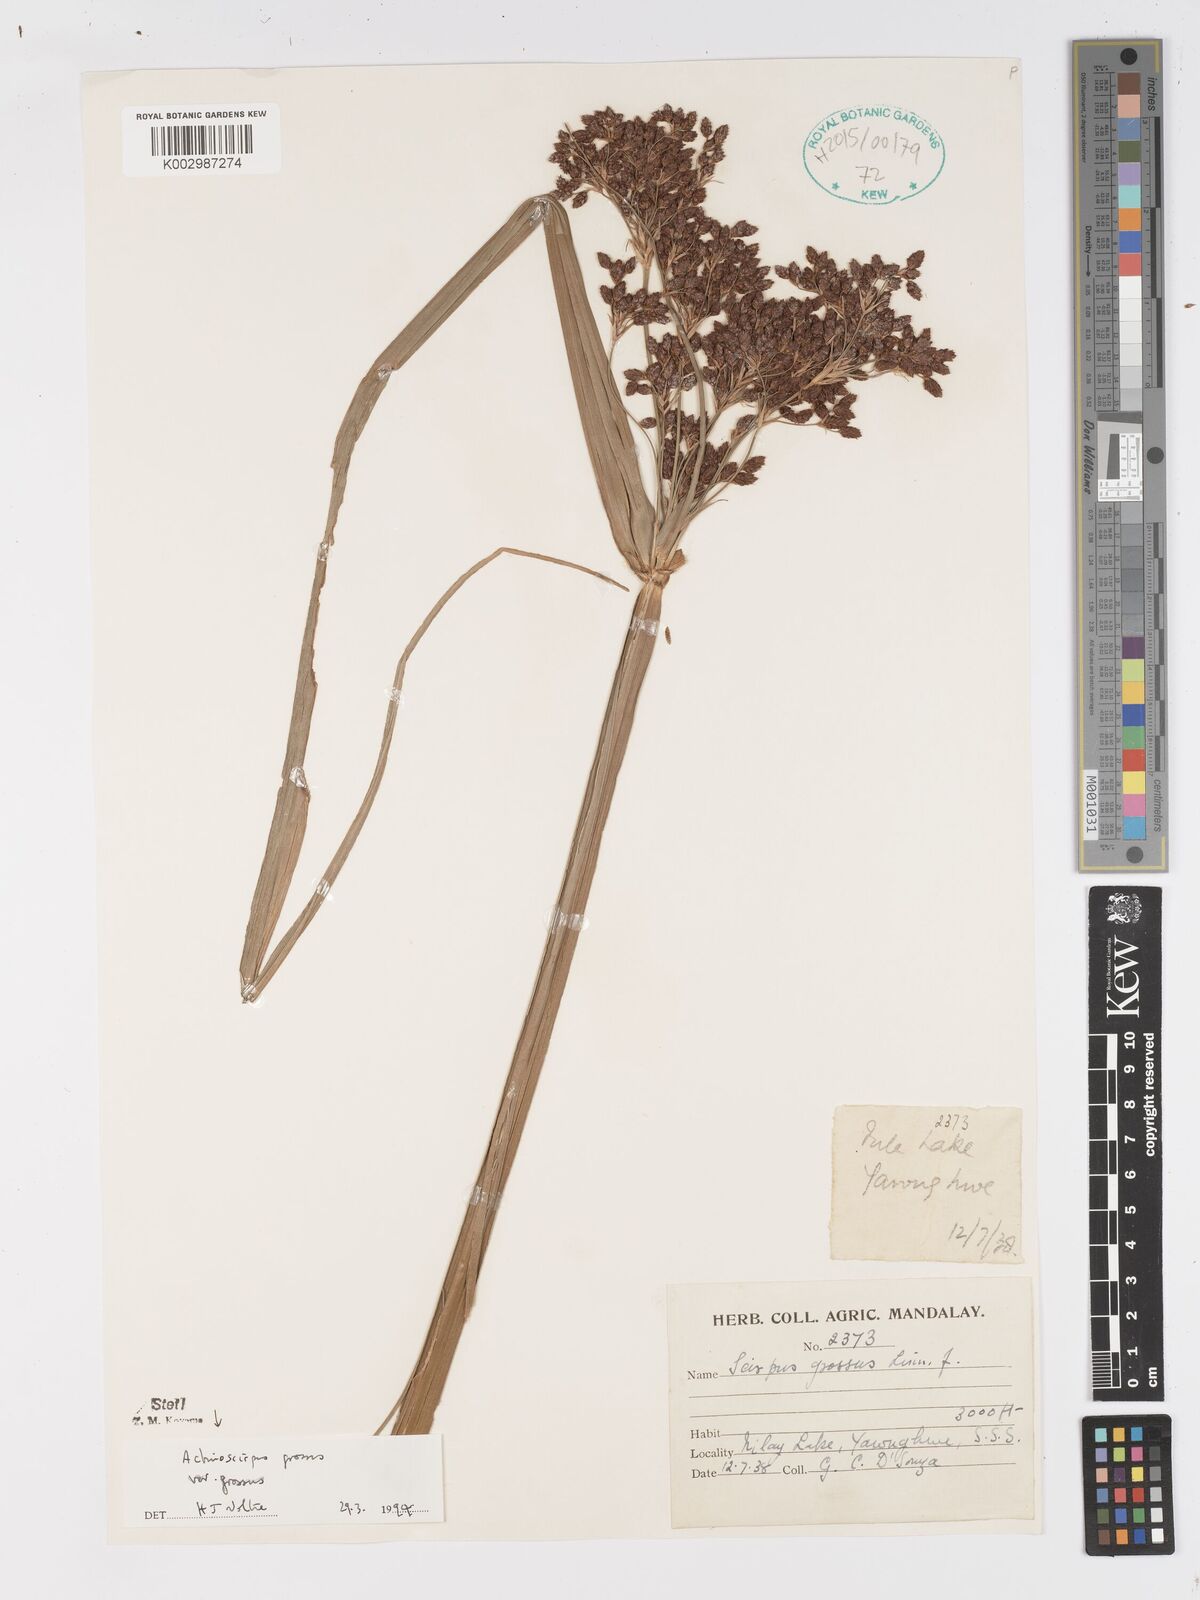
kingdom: Plantae
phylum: Tracheophyta
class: Liliopsida
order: Poales
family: Cyperaceae
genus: Actinoscirpus
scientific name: Actinoscirpus grossus
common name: Giant bur rush
